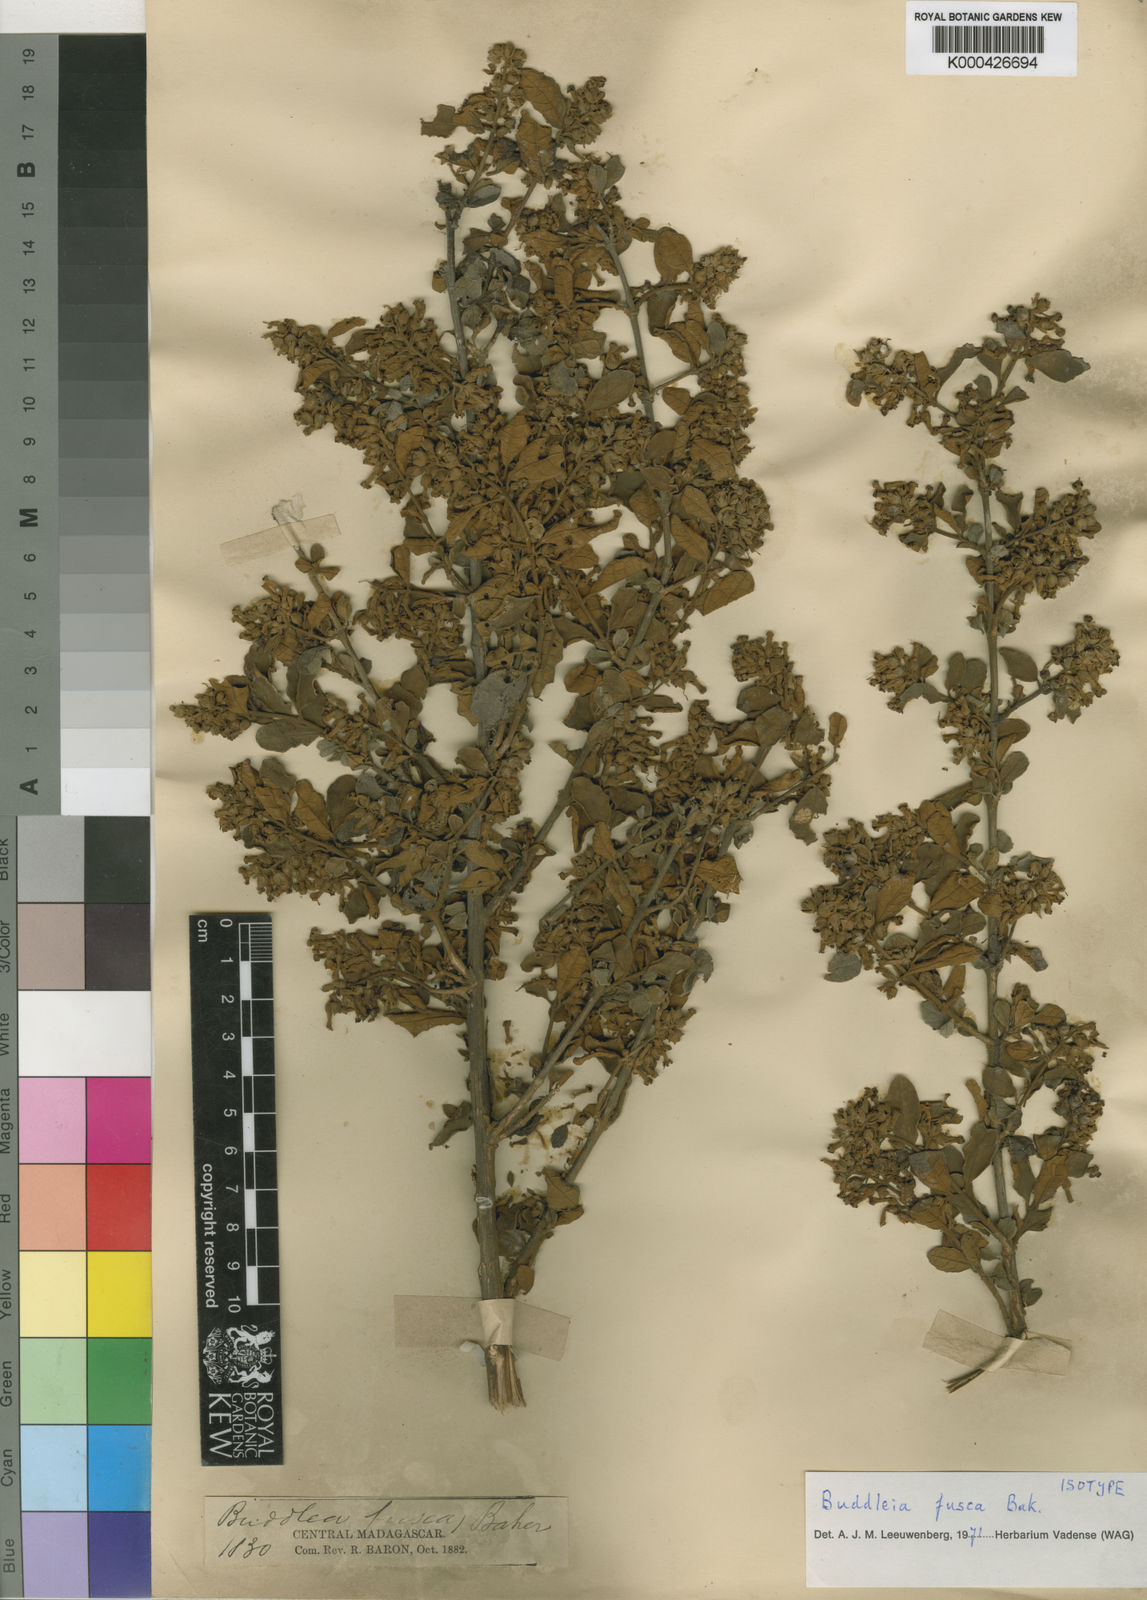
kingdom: Plantae
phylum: Tracheophyta
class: Magnoliopsida
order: Lamiales
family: Scrophulariaceae
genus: Buddleja
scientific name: Buddleja fusca
